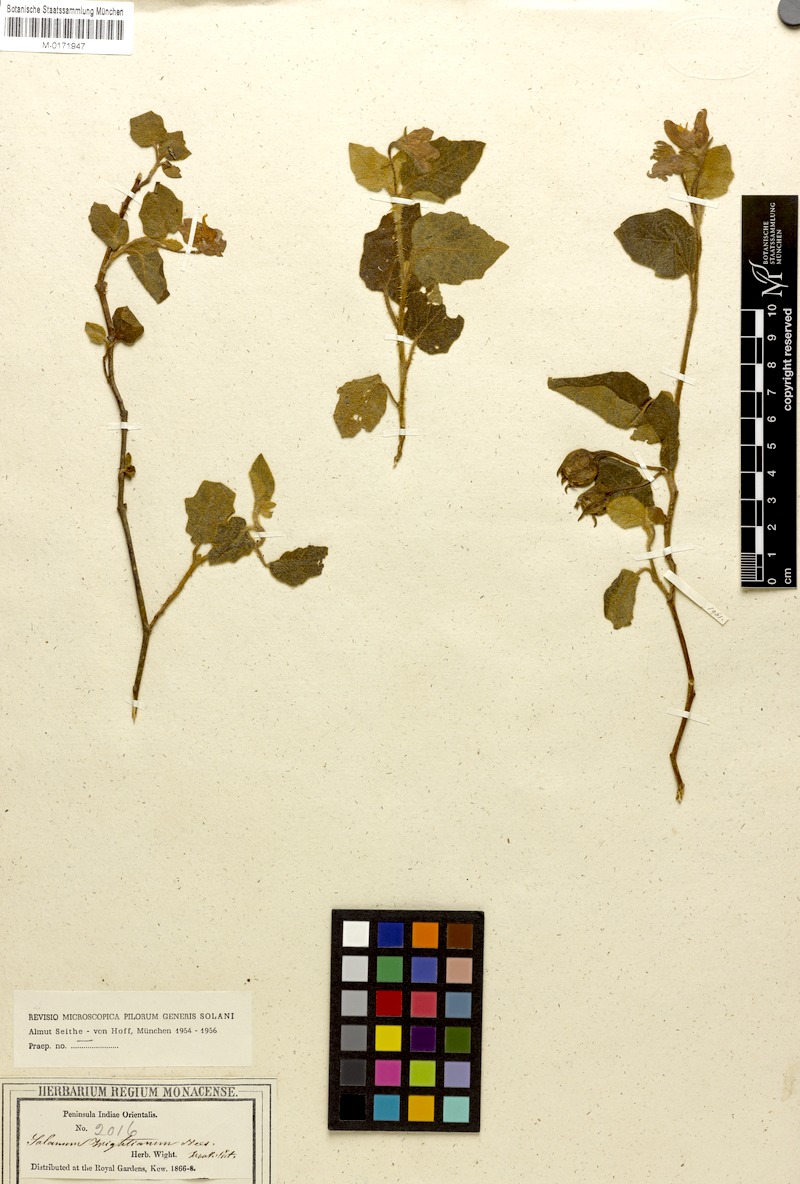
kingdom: Plantae
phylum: Tracheophyta
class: Magnoliopsida
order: Solanales
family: Solanaceae
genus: Solanum
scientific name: Solanum
